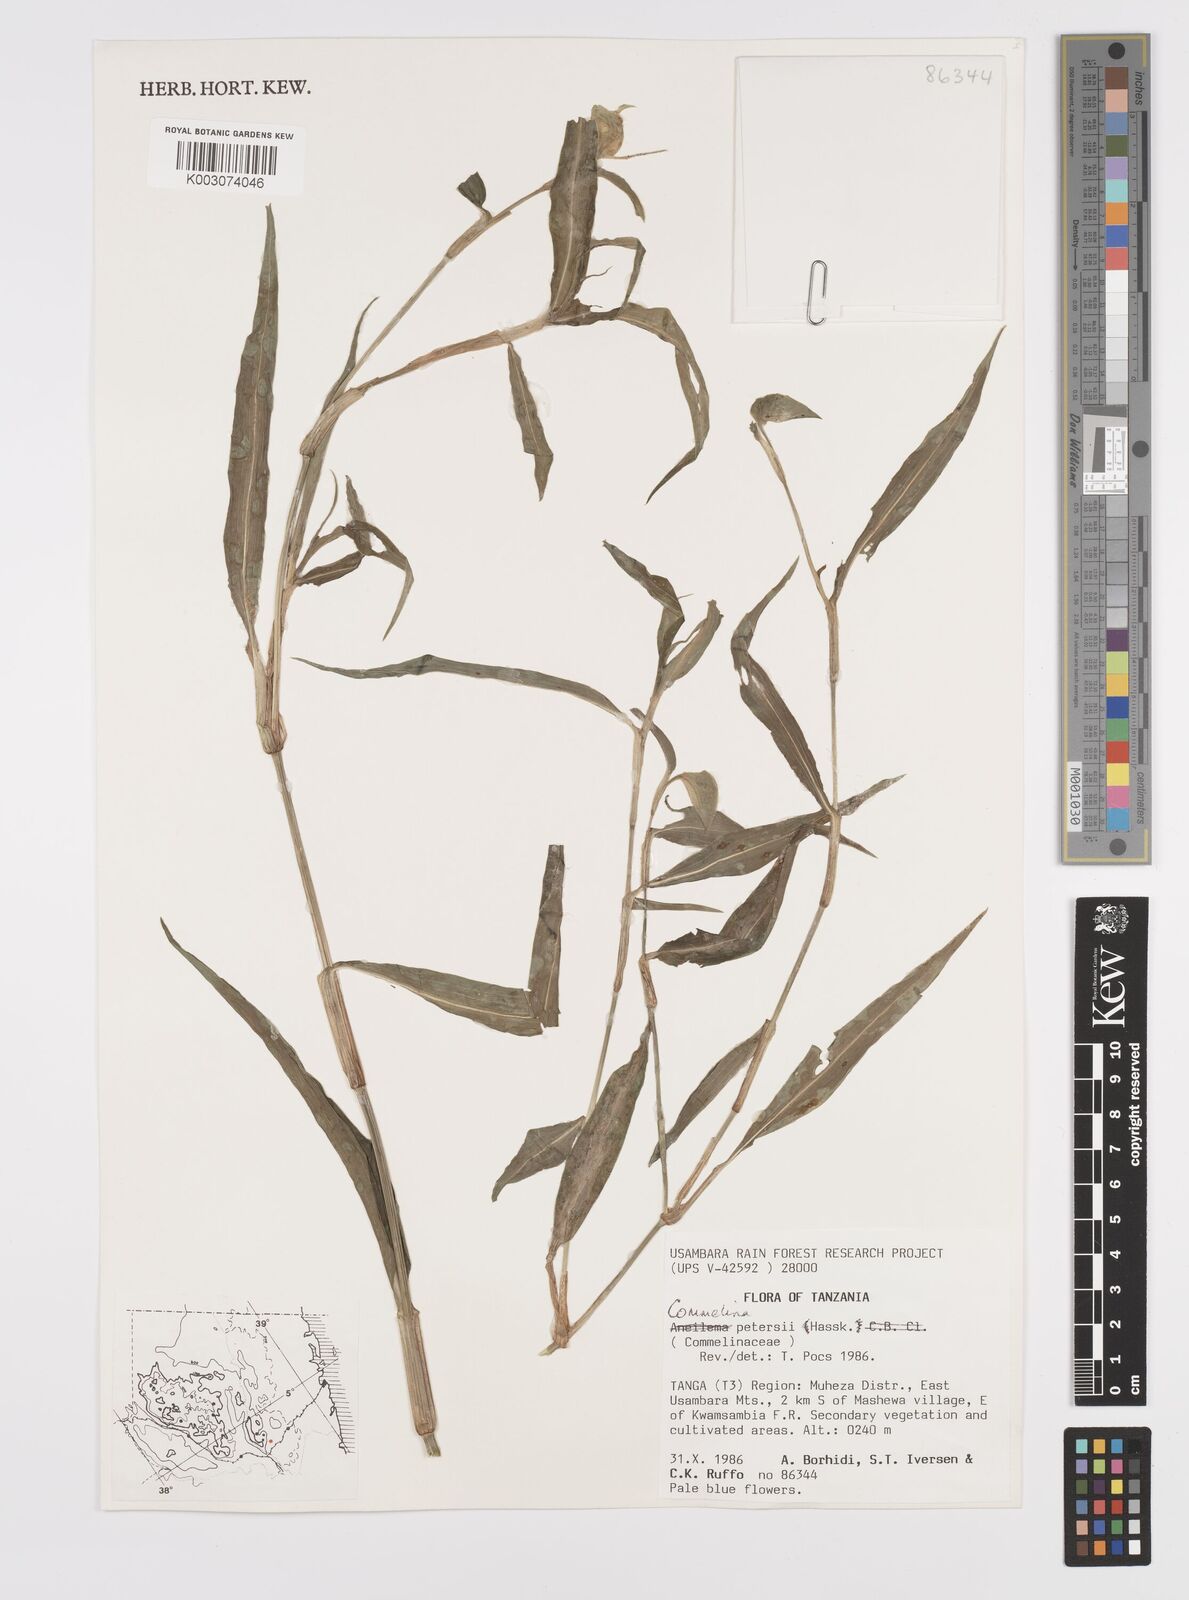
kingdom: Plantae
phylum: Tracheophyta
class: Liliopsida
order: Commelinales
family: Commelinaceae
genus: Commelina
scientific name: Commelina petersii
